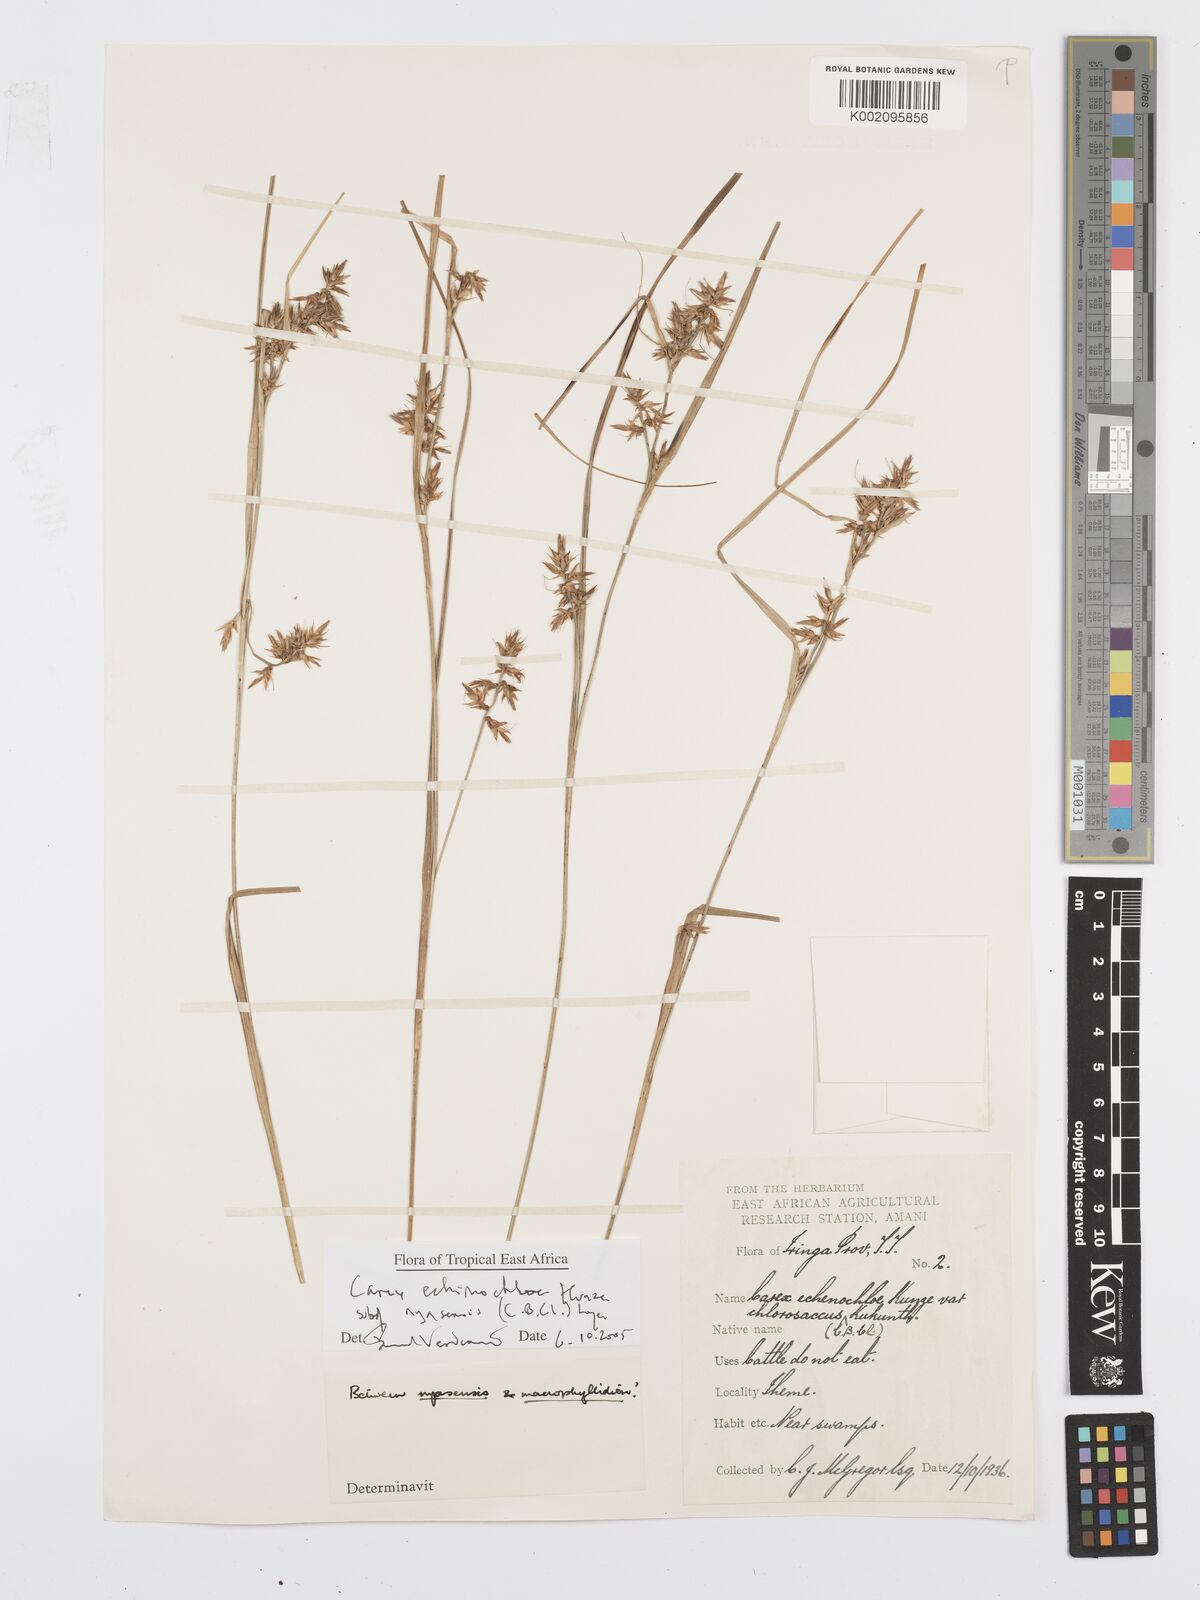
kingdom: Plantae
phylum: Tracheophyta
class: Liliopsida
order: Poales
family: Cyperaceae
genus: Carex
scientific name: Carex spicatopaniculata
